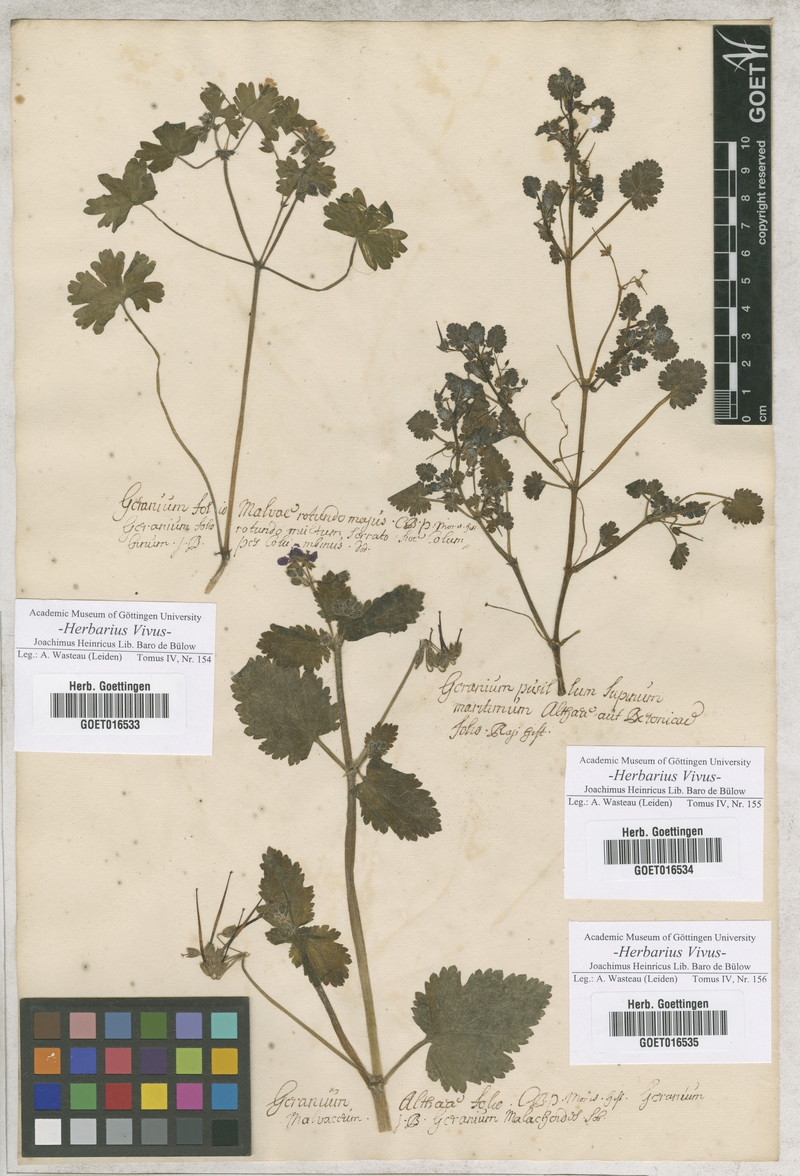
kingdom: Plantae
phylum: Tracheophyta
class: Magnoliopsida
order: Geraniales
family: Geraniaceae
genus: Geranium
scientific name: Geranium rotundifolium
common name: Round-leaved crane's-bill
